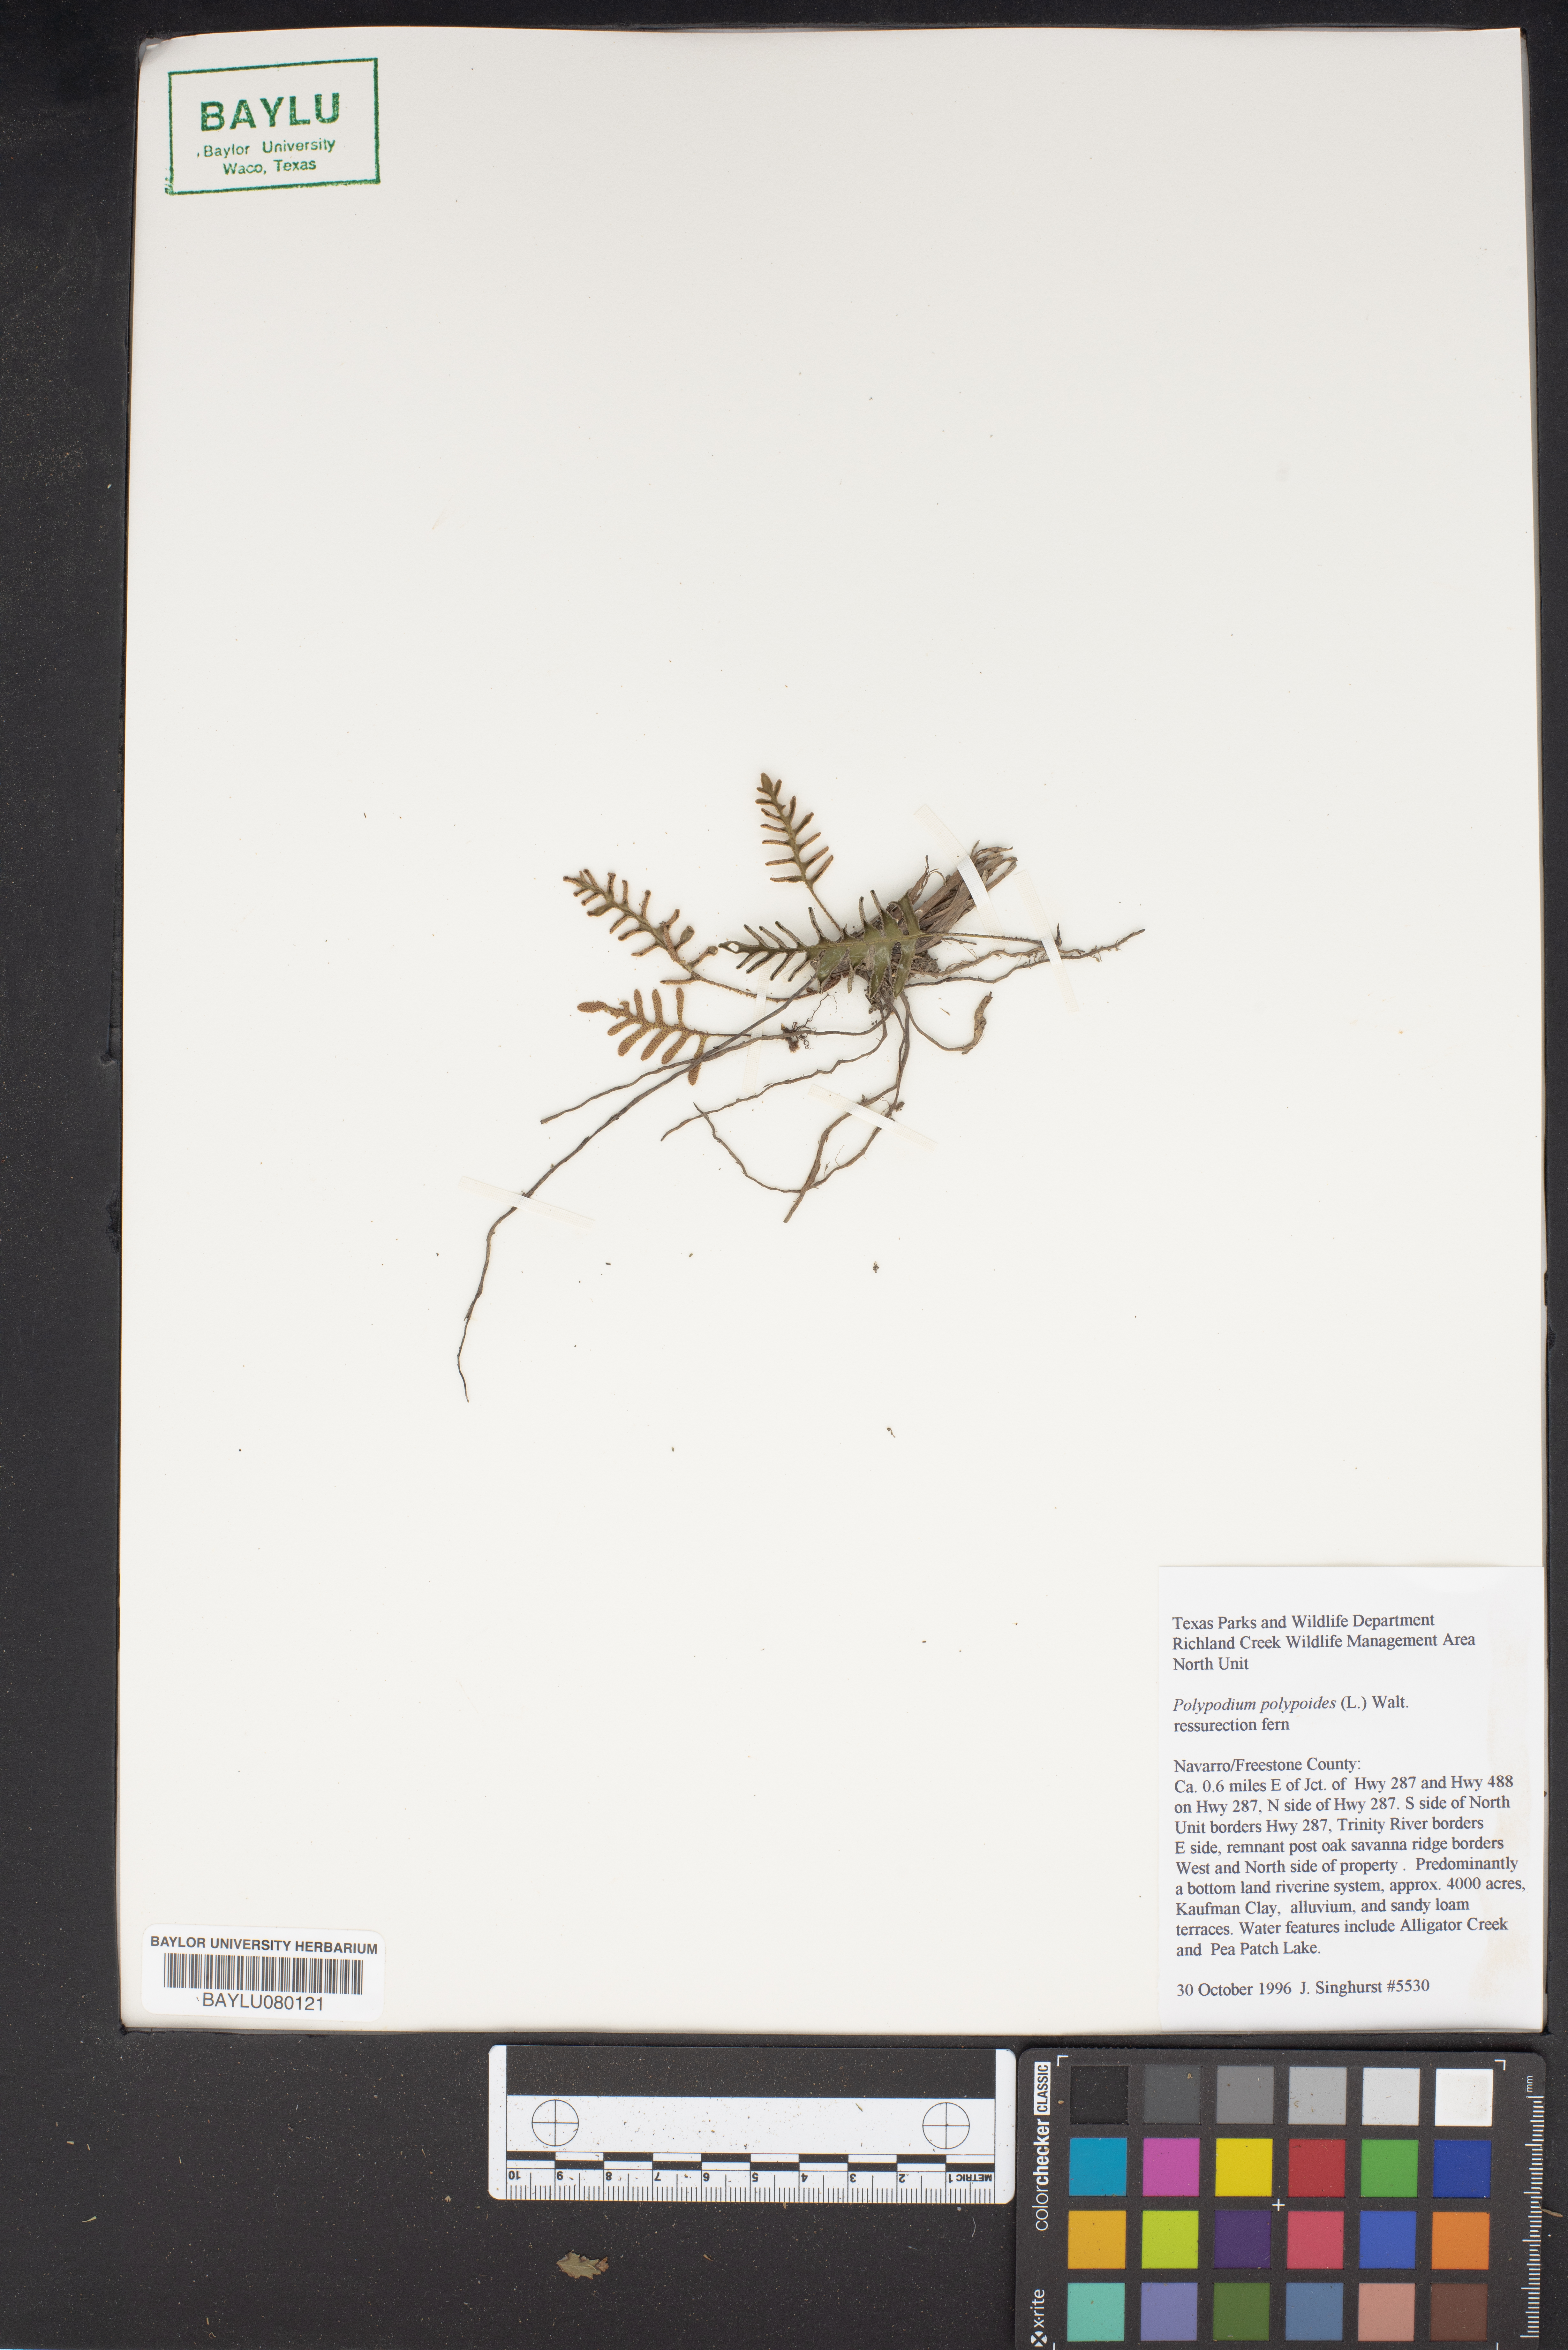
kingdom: Plantae
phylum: Tracheophyta
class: Polypodiopsida
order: Polypodiales
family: Polypodiaceae
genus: Pleopeltis
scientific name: Pleopeltis polypodioides
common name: Resurrection fern
